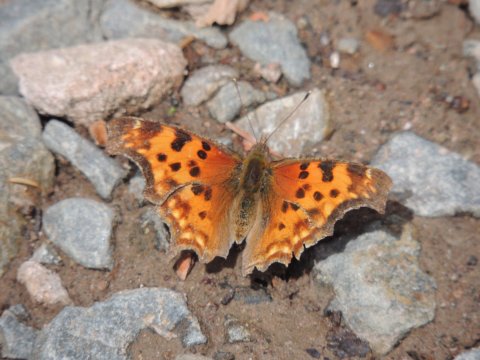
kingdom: Animalia
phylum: Arthropoda
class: Insecta
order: Lepidoptera
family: Nymphalidae
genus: Polygonia
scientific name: Polygonia satyrus
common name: Satyr Comma
